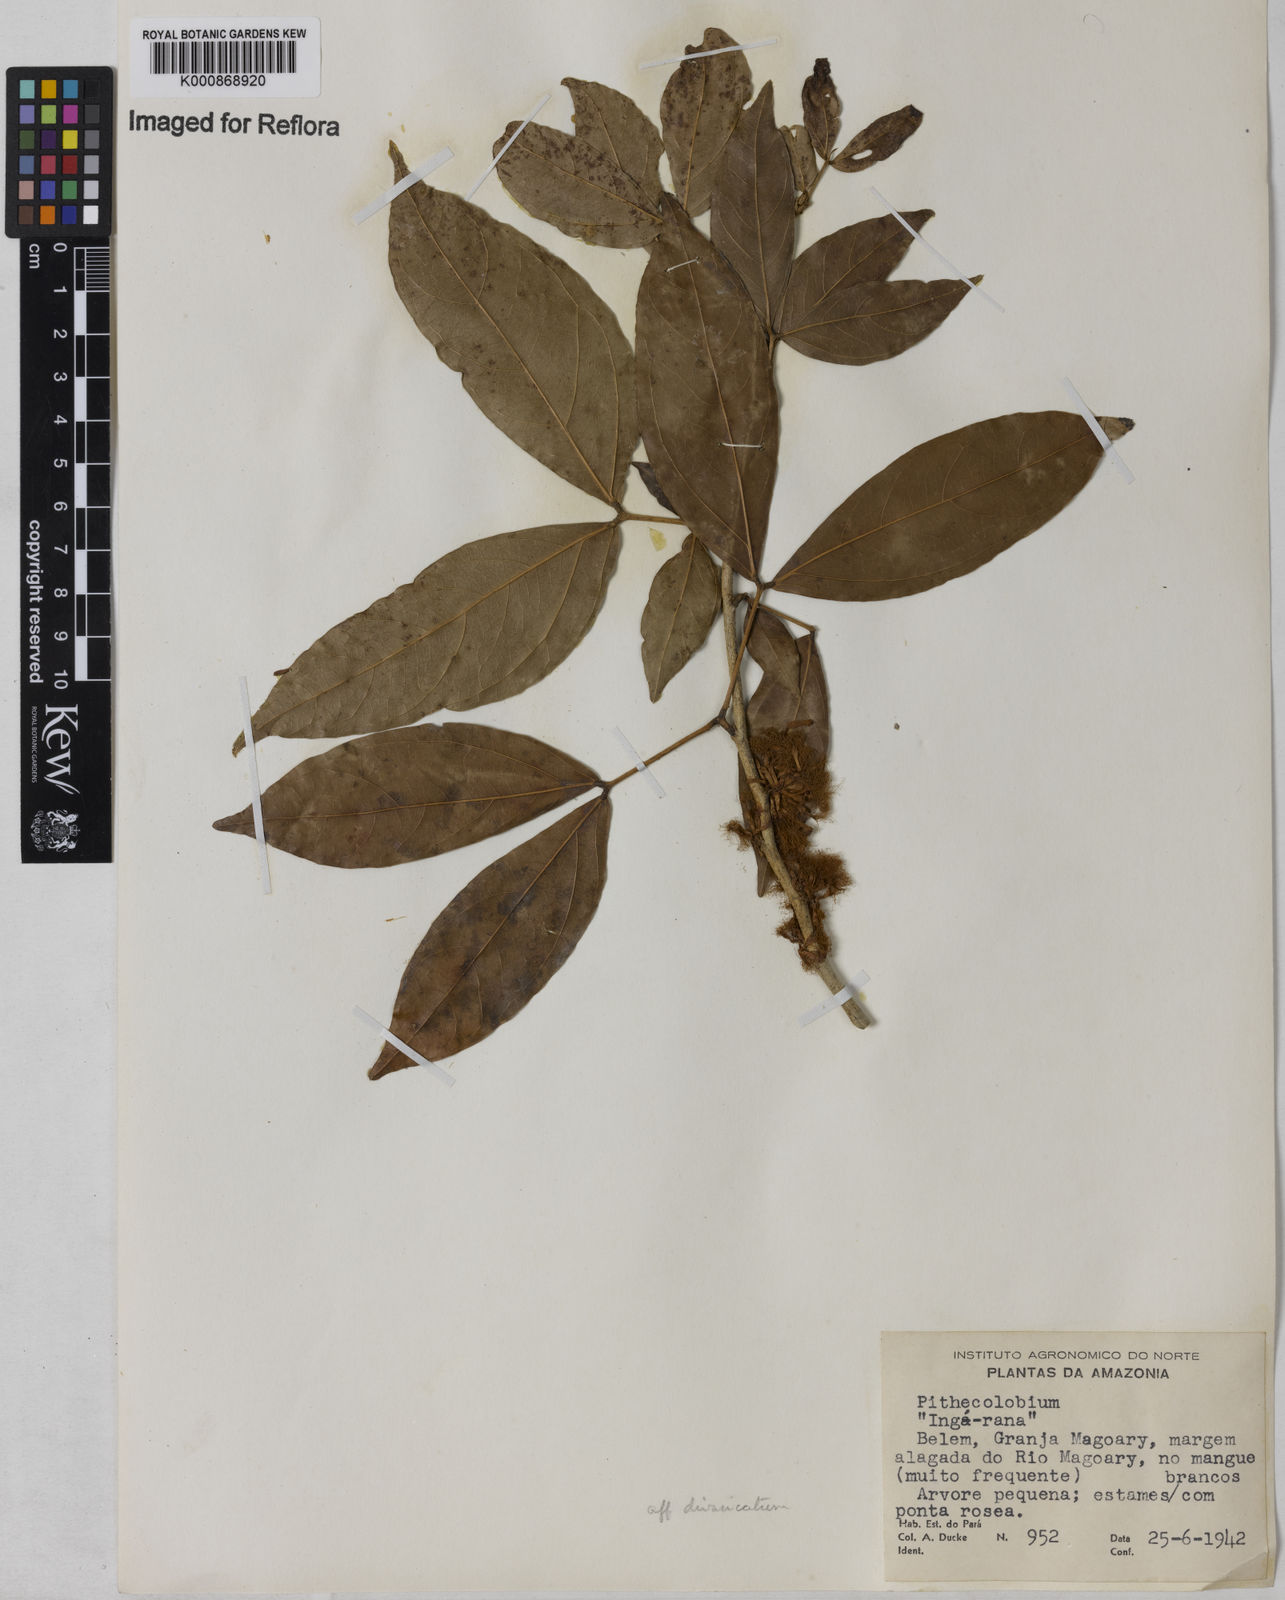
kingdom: Plantae
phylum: Tracheophyta
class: Magnoliopsida
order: Fabales
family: Fabaceae
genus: Zygia
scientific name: Zygia
